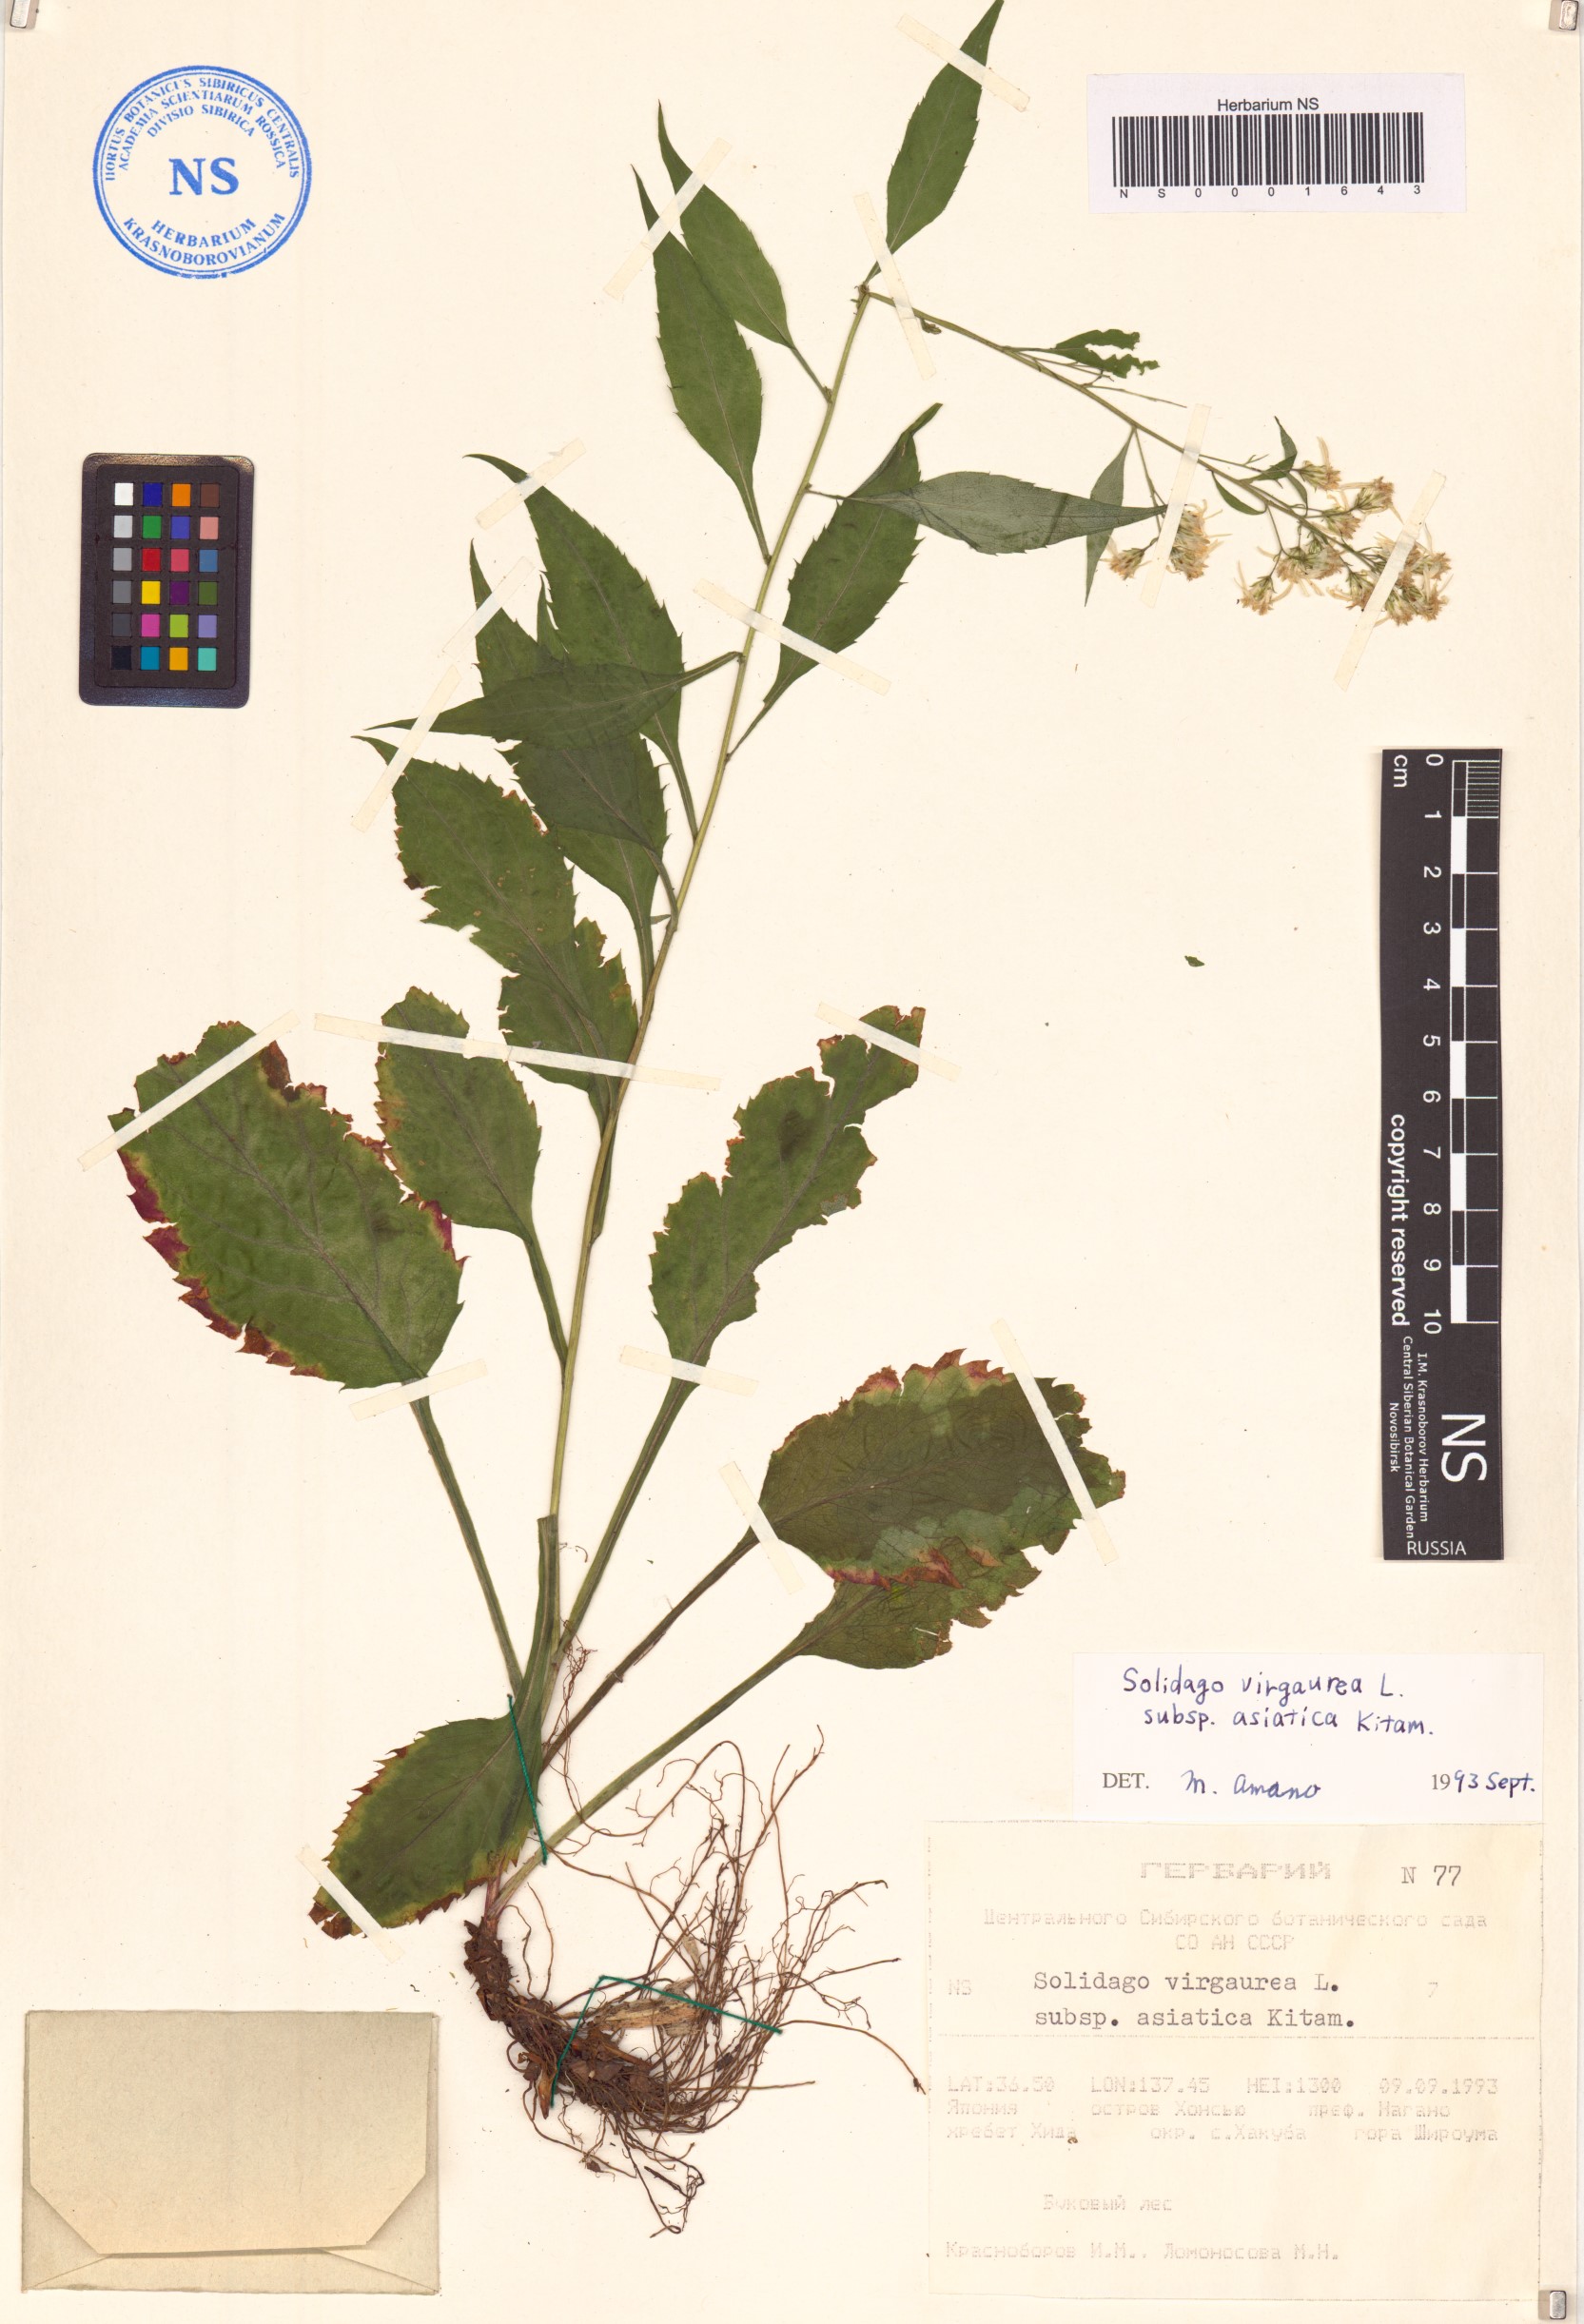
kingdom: Plantae
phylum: Tracheophyta
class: Magnoliopsida
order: Asterales
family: Asteraceae
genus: Solidago
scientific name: Solidago virgaurea
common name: Goldenrod
